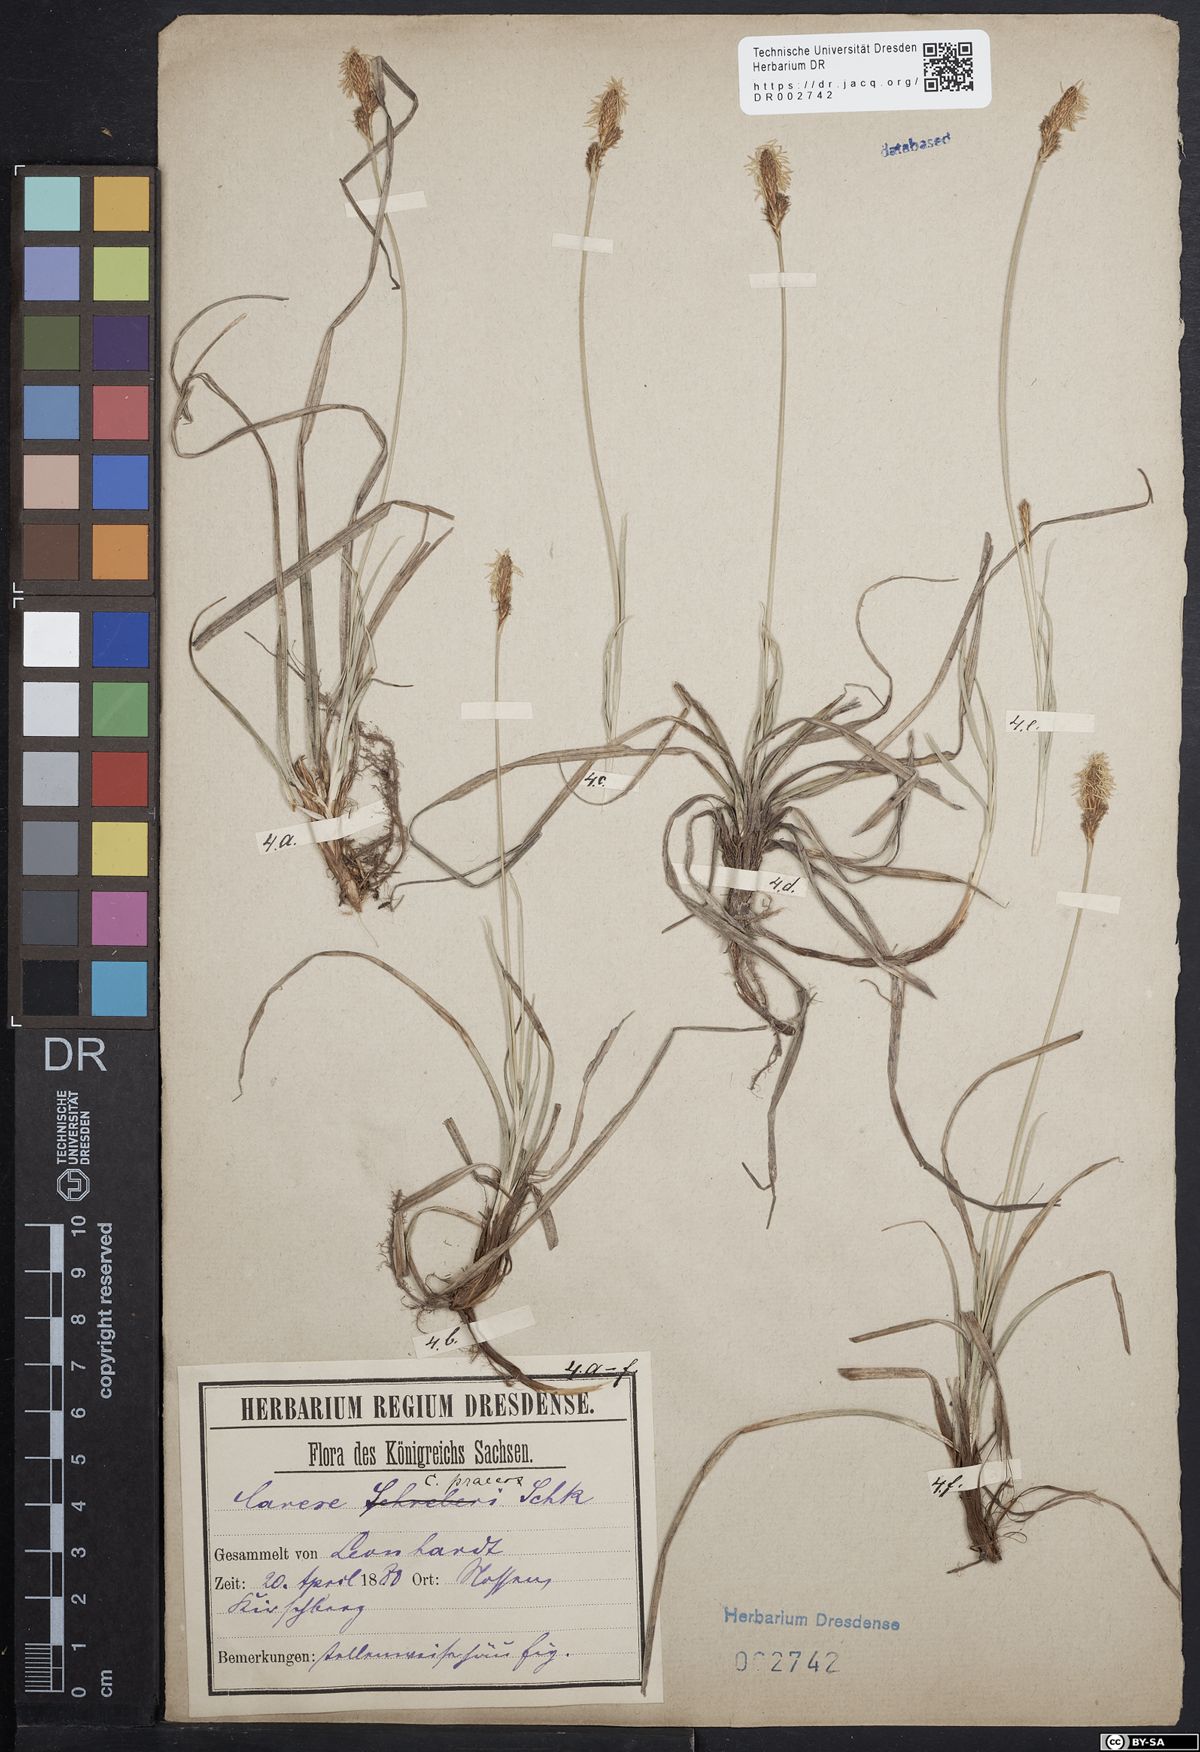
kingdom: Plantae
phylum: Tracheophyta
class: Liliopsida
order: Poales
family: Cyperaceae
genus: Carex
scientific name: Carex caryophyllea
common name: Spring sedge
